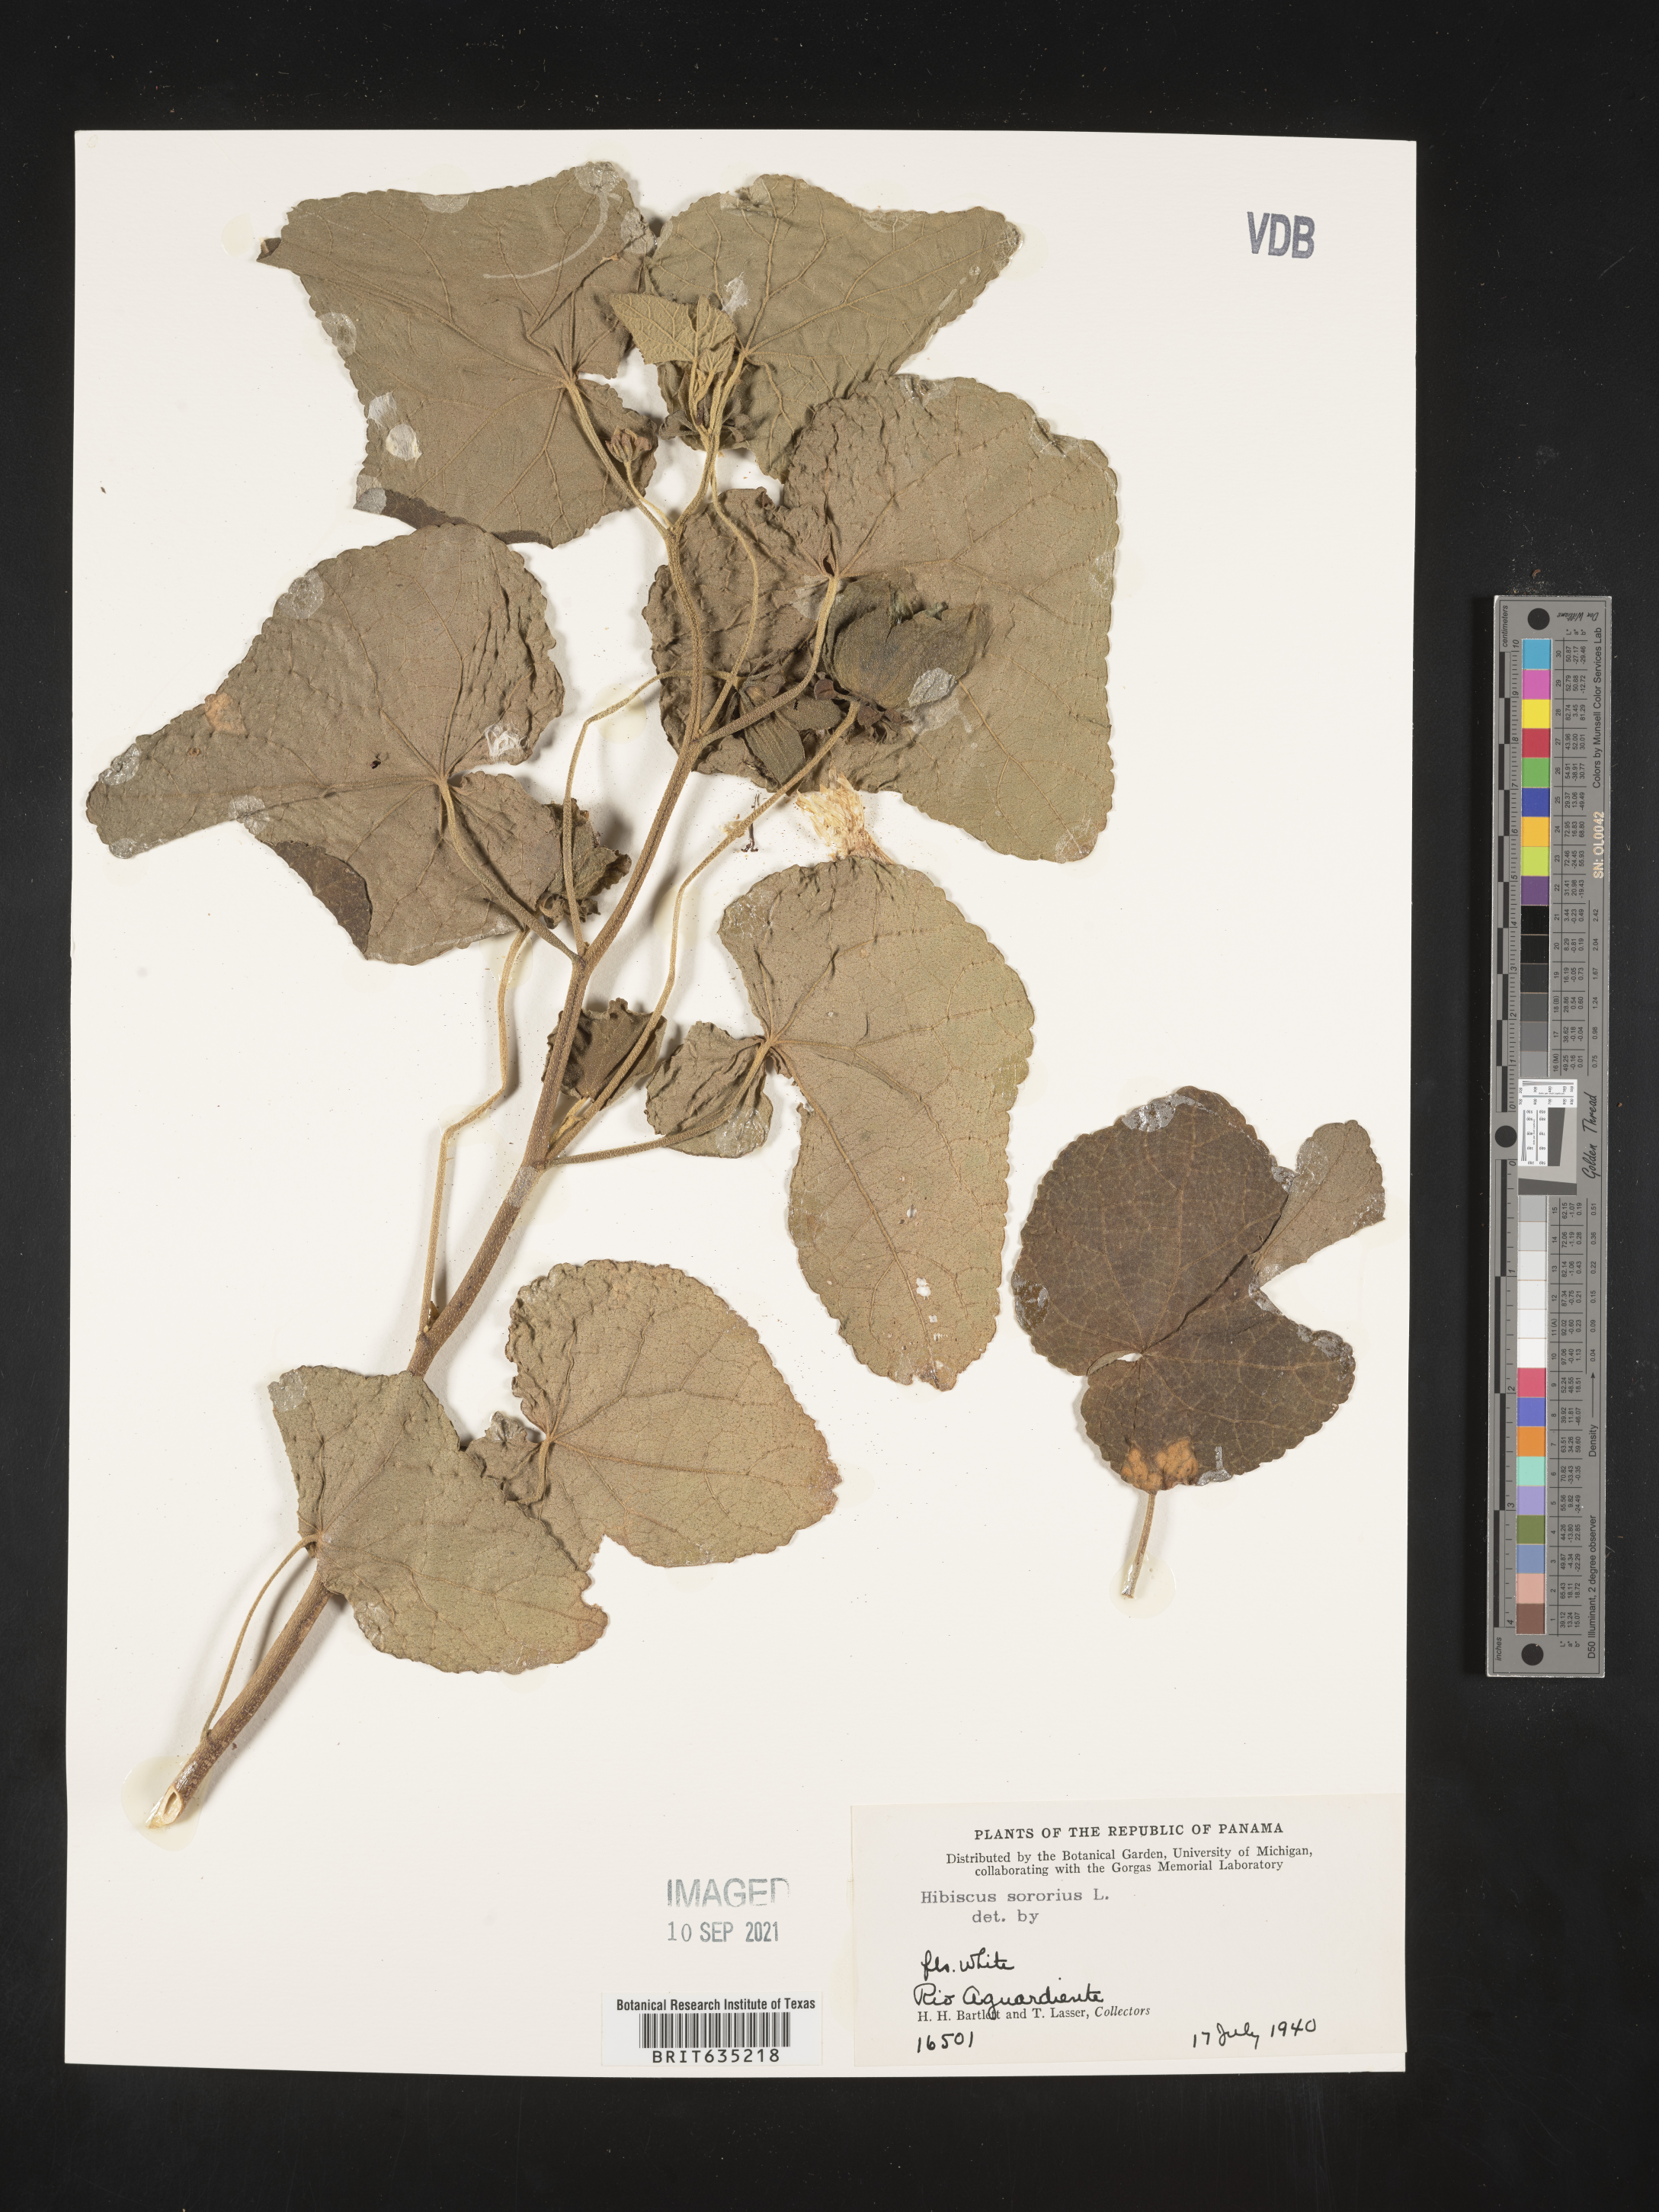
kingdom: Plantae
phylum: Tracheophyta
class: Magnoliopsida
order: Malvales
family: Malvaceae
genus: Hibiscus
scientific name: Hibiscus
